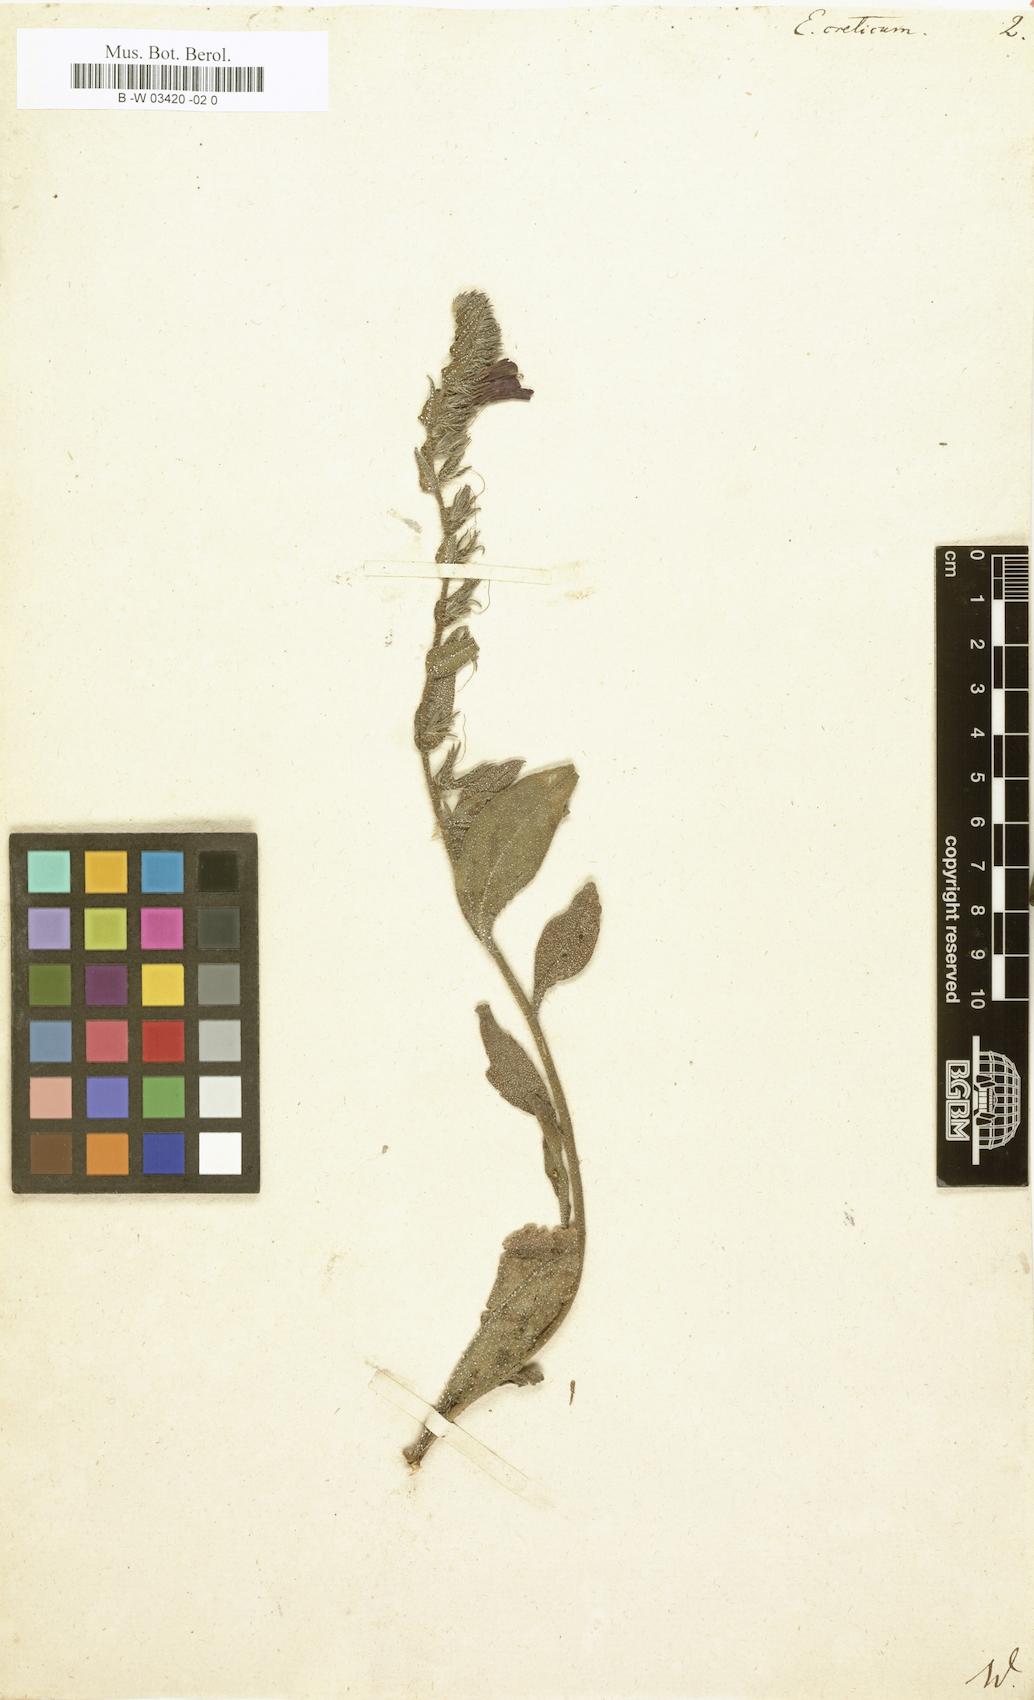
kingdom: Plantae
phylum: Tracheophyta
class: Magnoliopsida
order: Boraginales
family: Boraginaceae
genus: Echium
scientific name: Echium creticum
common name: Cretan viper's bugloss
